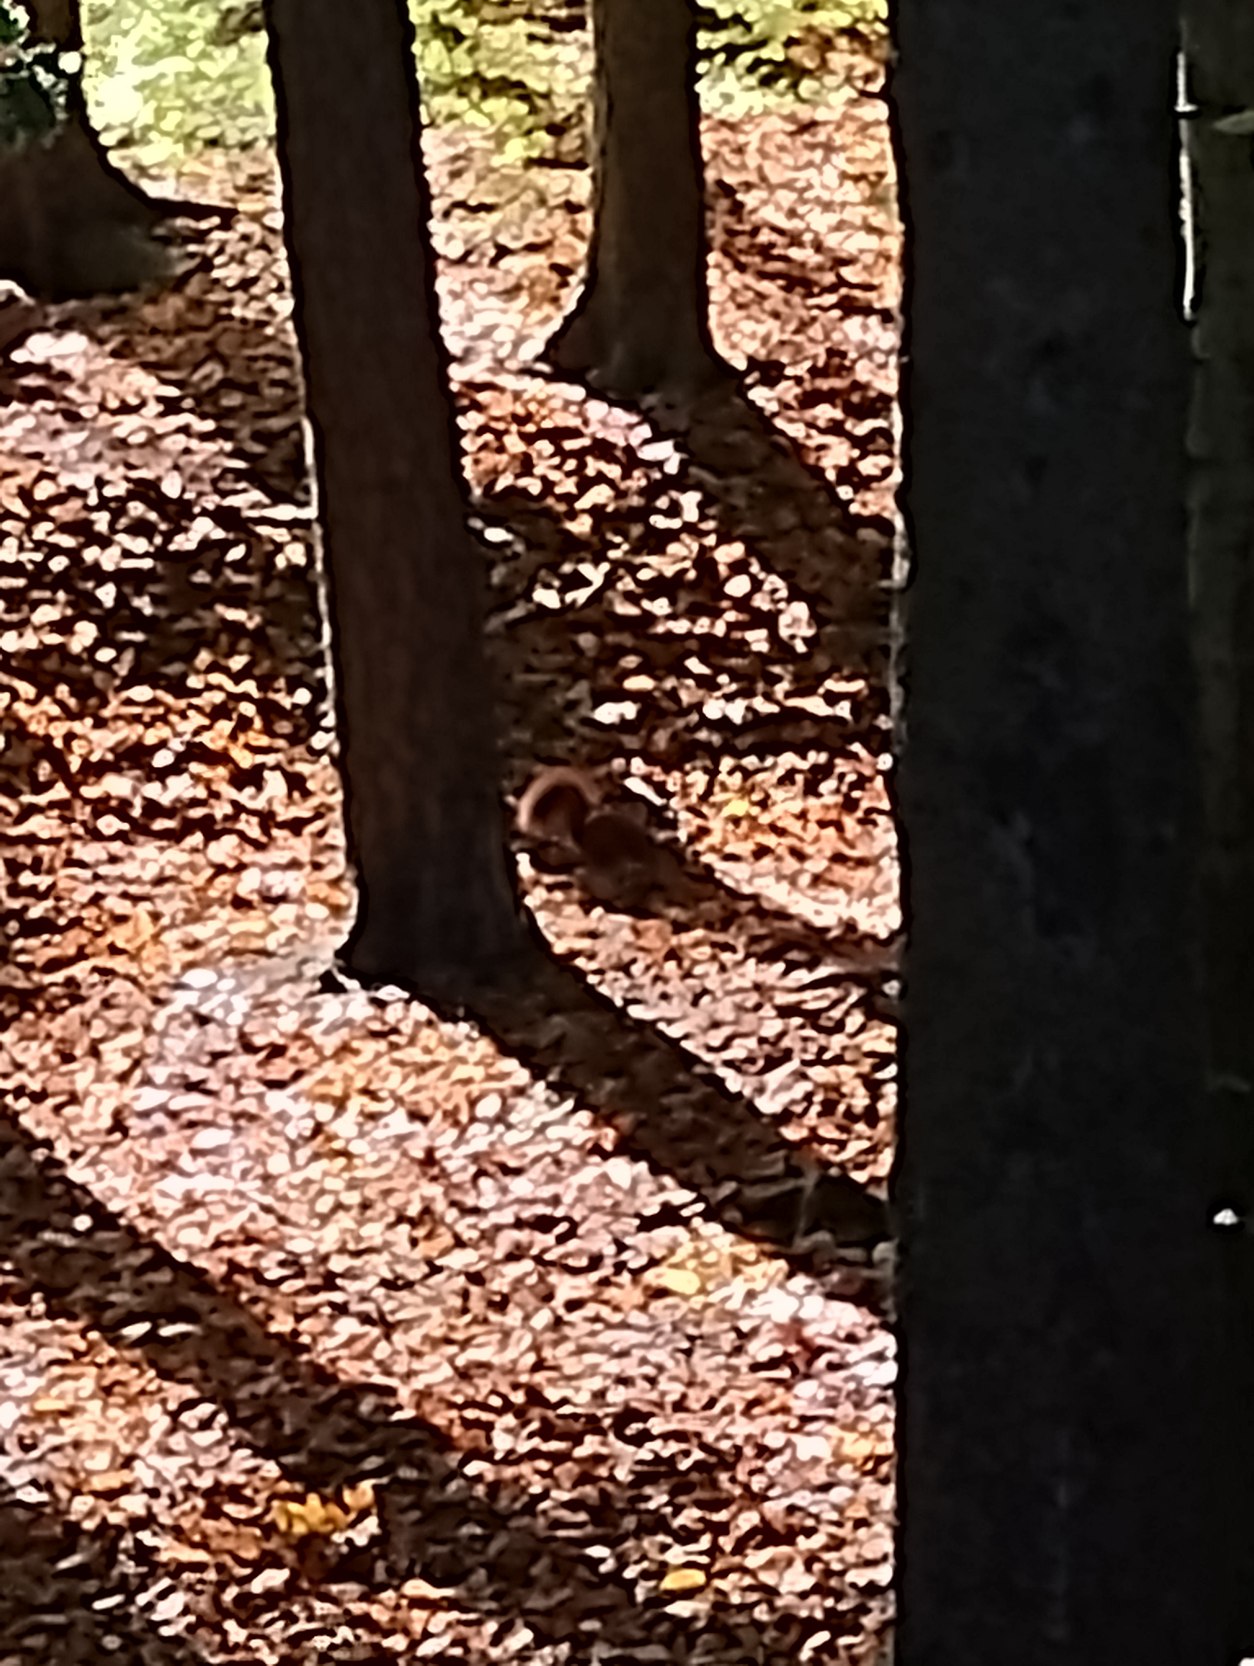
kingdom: Animalia
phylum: Chordata
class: Mammalia
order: Rodentia
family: Sciuridae
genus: Sciurus
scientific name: Sciurus vulgaris
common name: Egern
